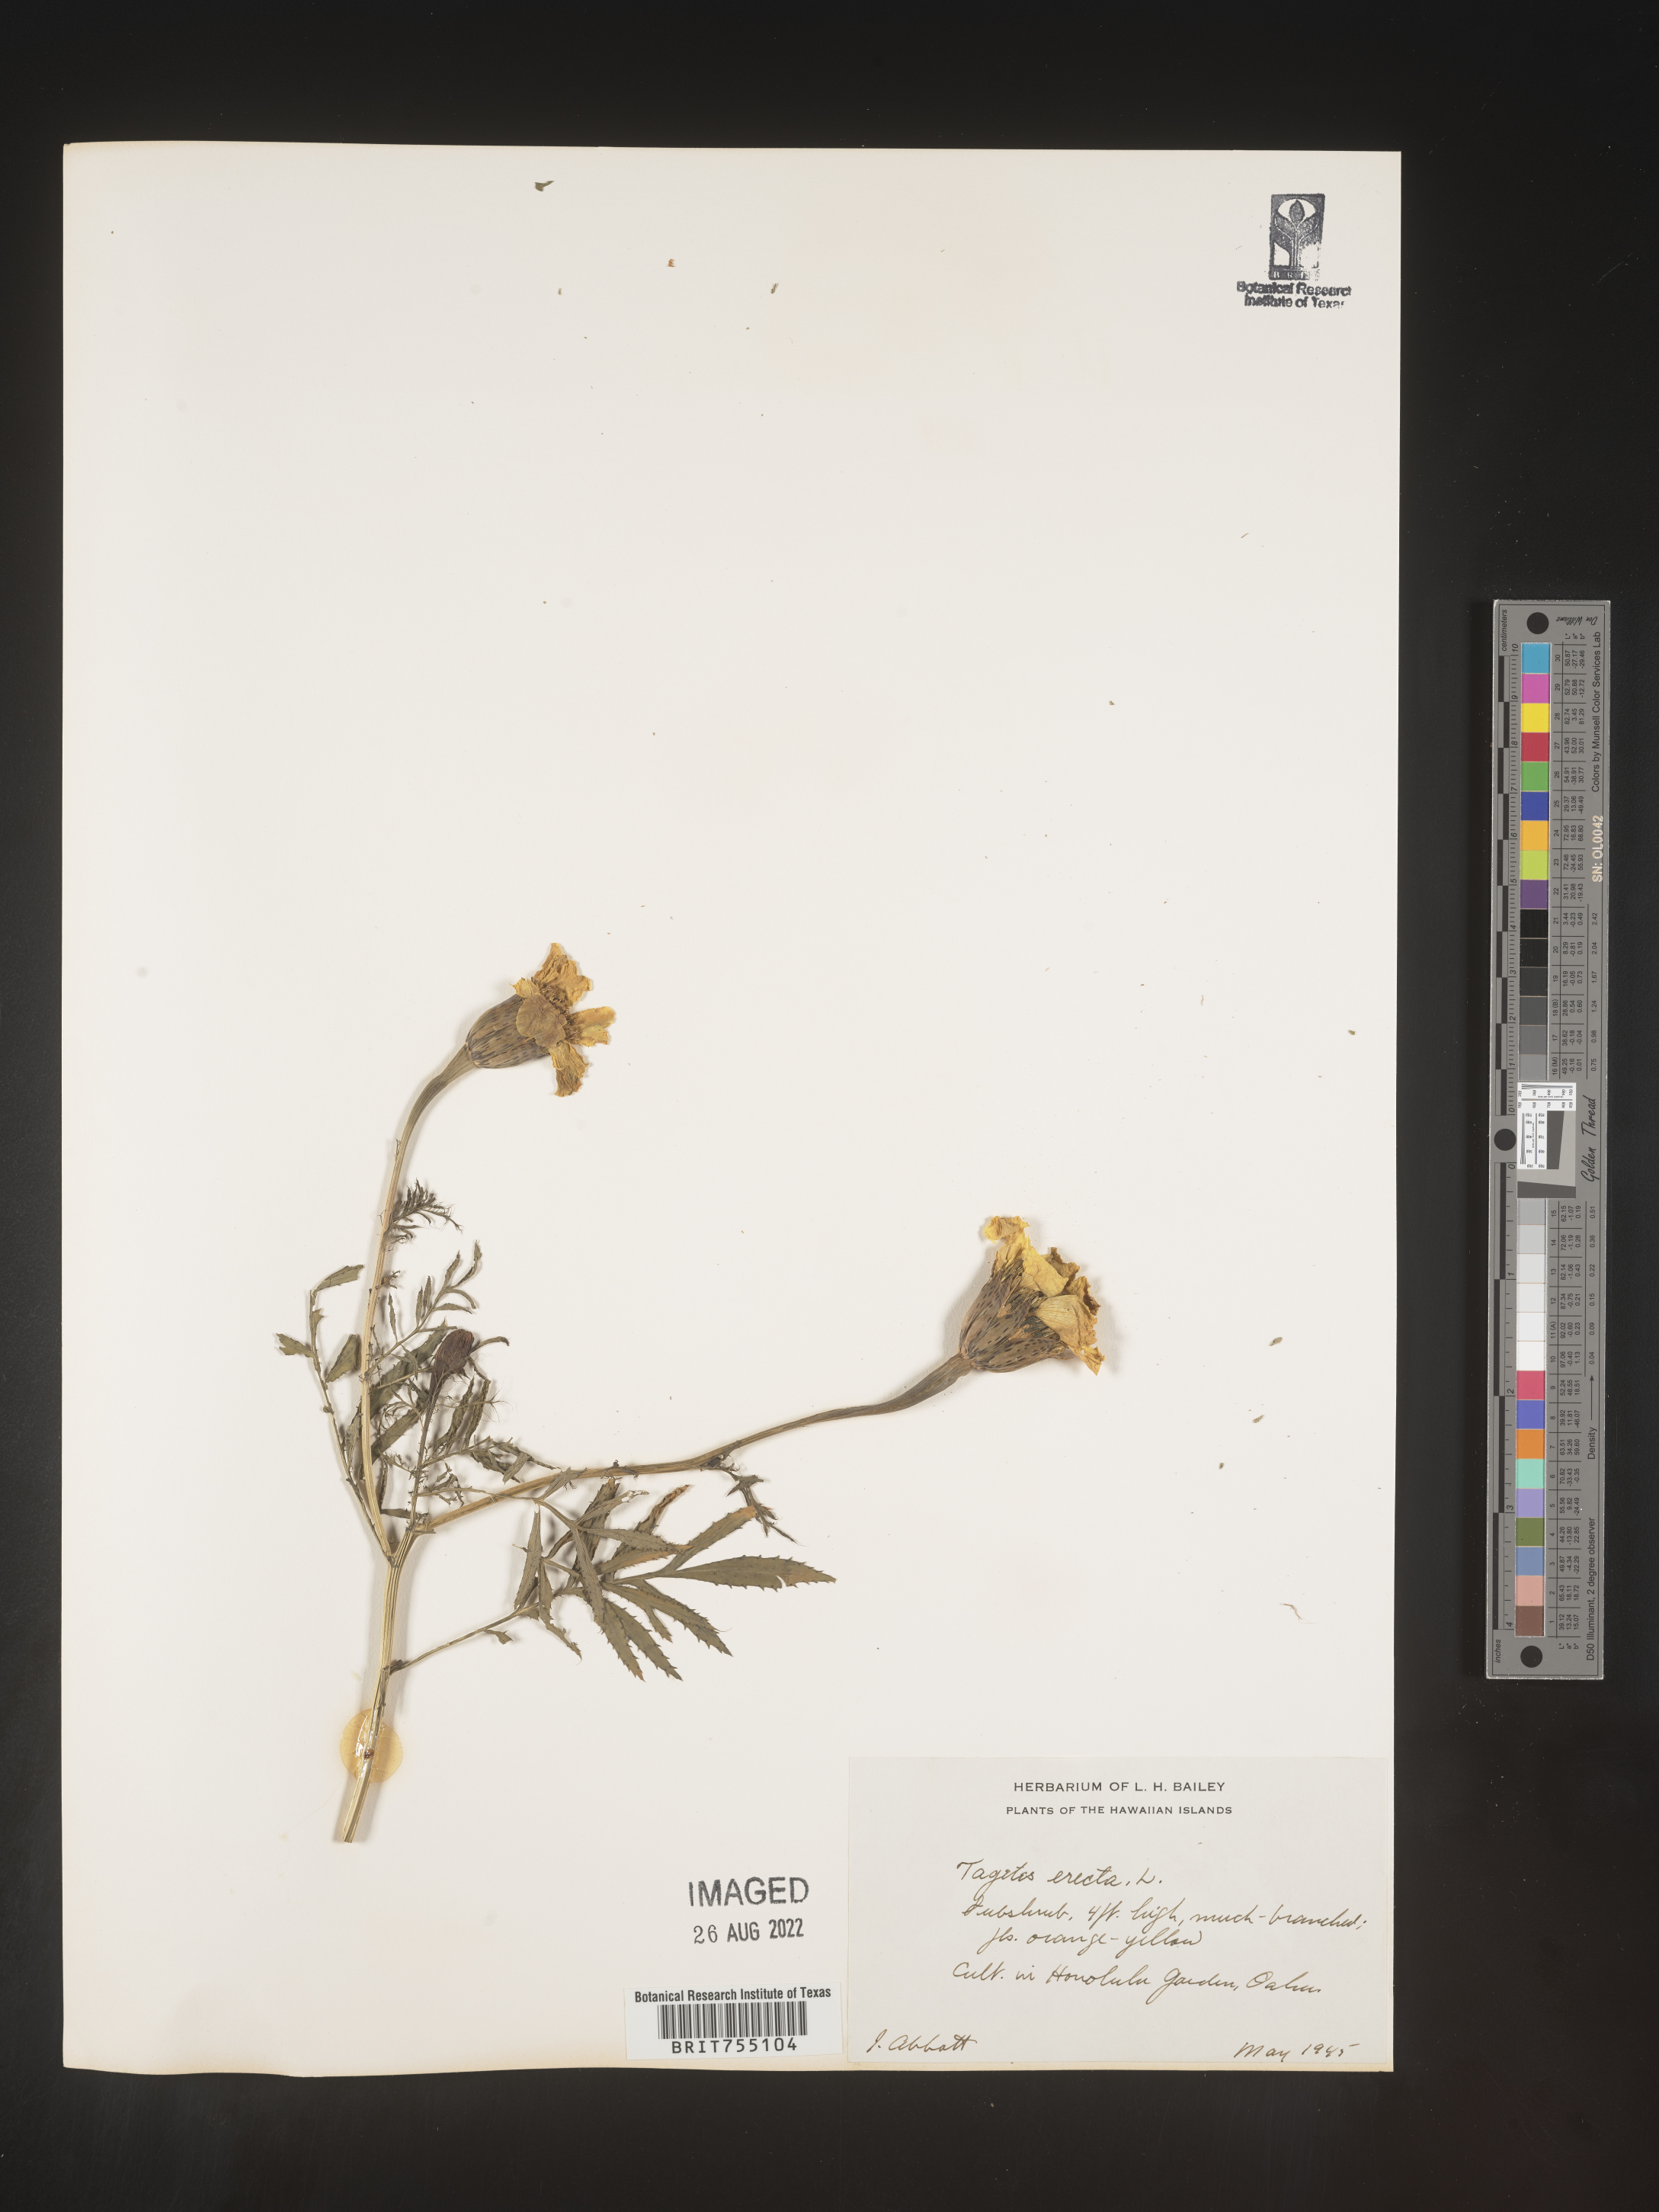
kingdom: Plantae
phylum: Tracheophyta
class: Magnoliopsida
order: Asterales
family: Asteraceae
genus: Tagetes
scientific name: Tagetes
